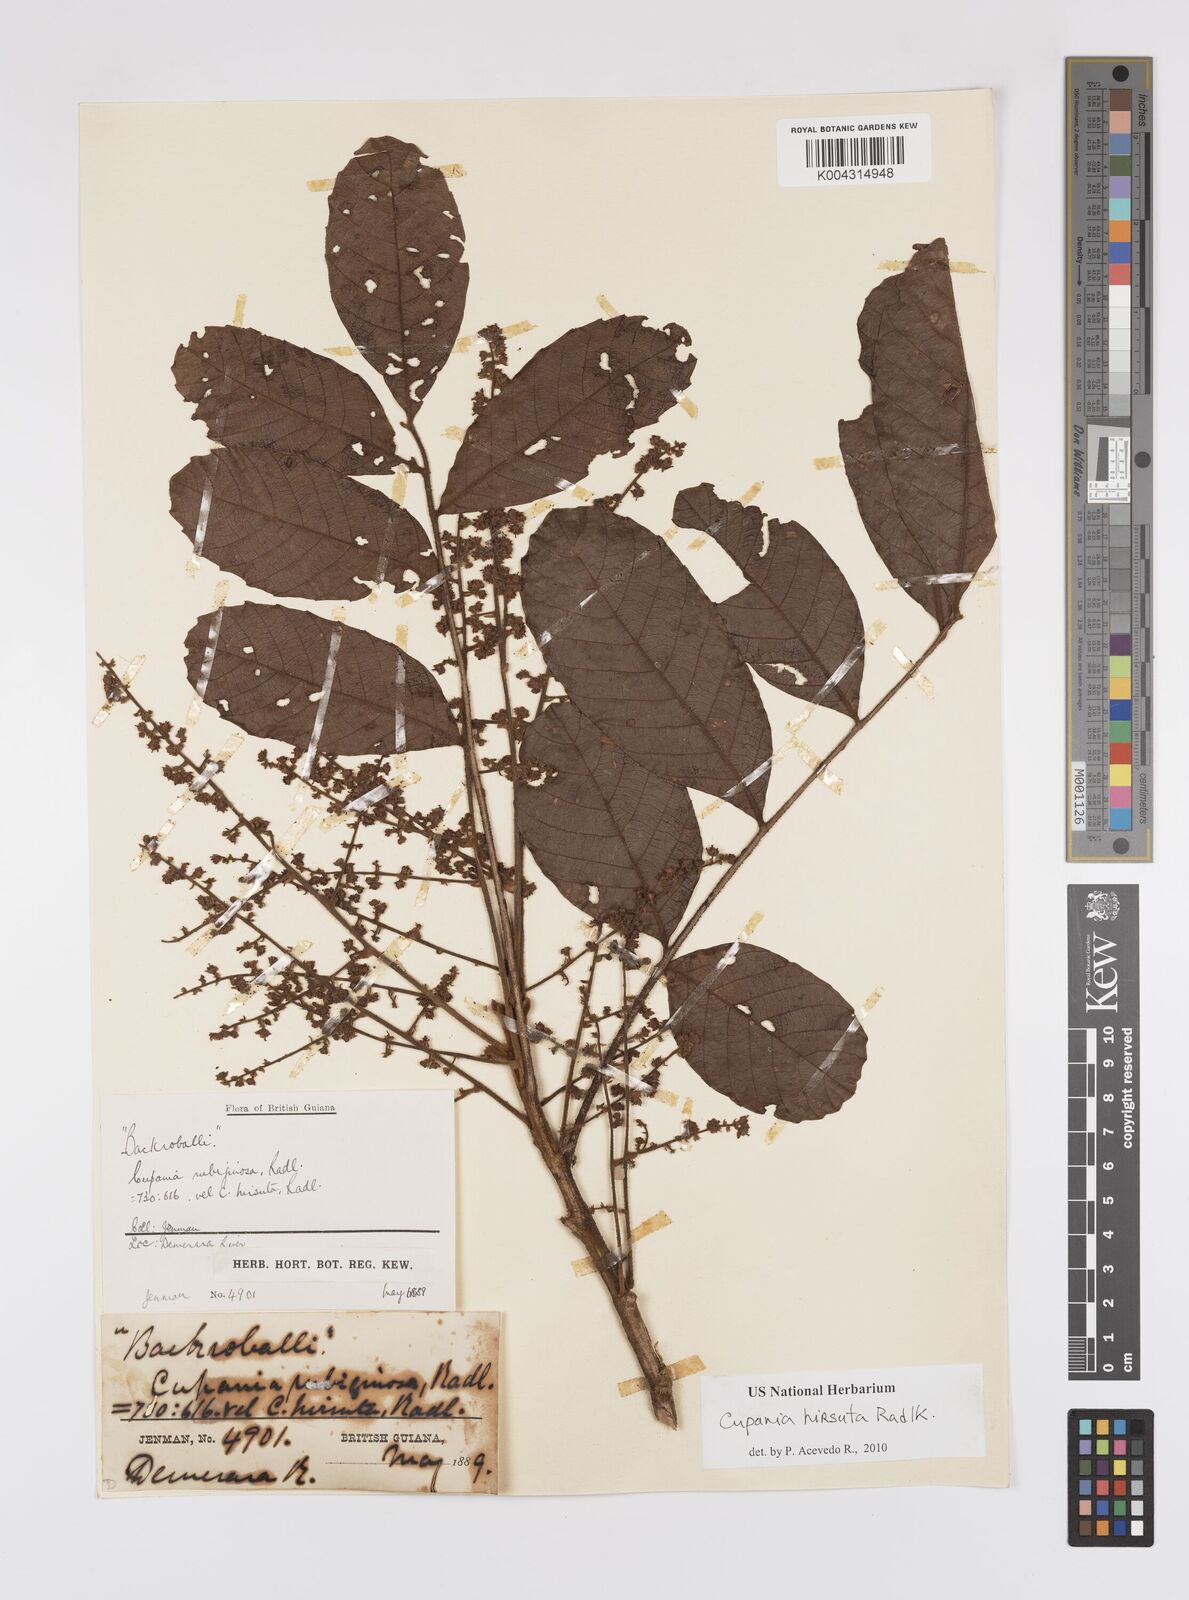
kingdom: Plantae
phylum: Tracheophyta
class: Magnoliopsida
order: Sapindales
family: Sapindaceae
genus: Cupania
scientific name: Cupania hirsuta
